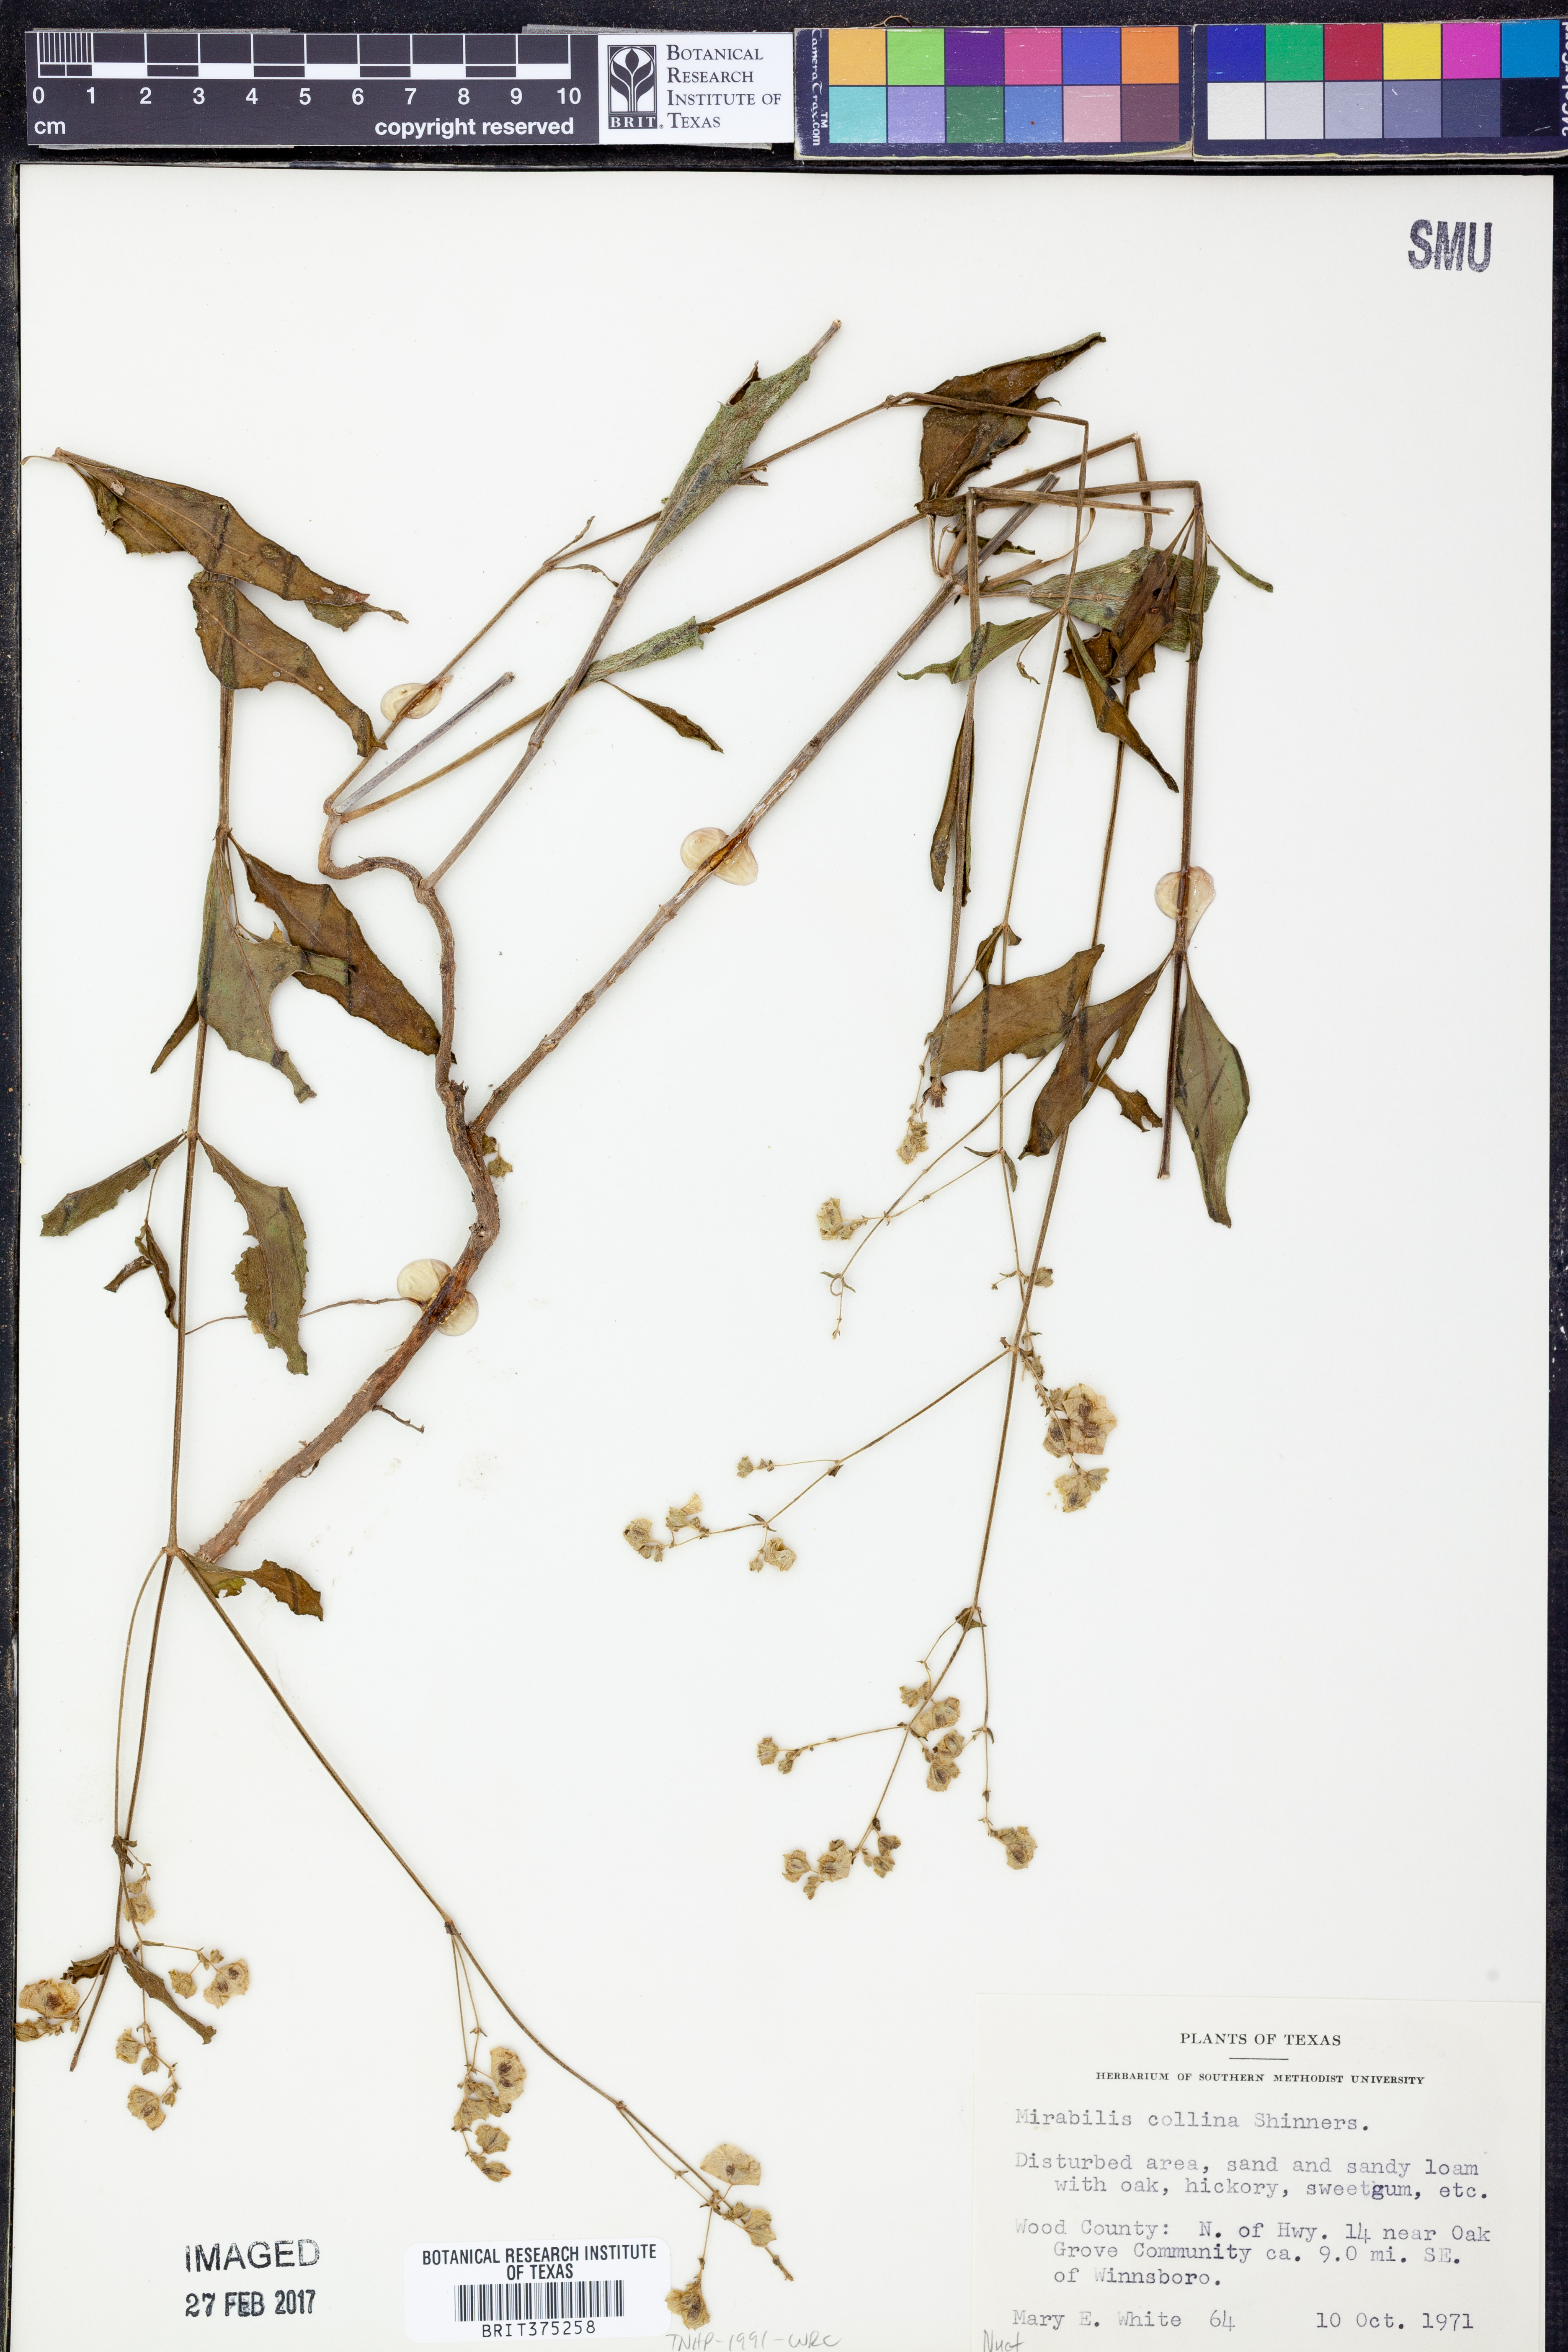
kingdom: Plantae
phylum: Tracheophyta
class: Magnoliopsida
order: Caryophyllales
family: Nyctaginaceae
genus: Mirabilis
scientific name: Mirabilis collina
